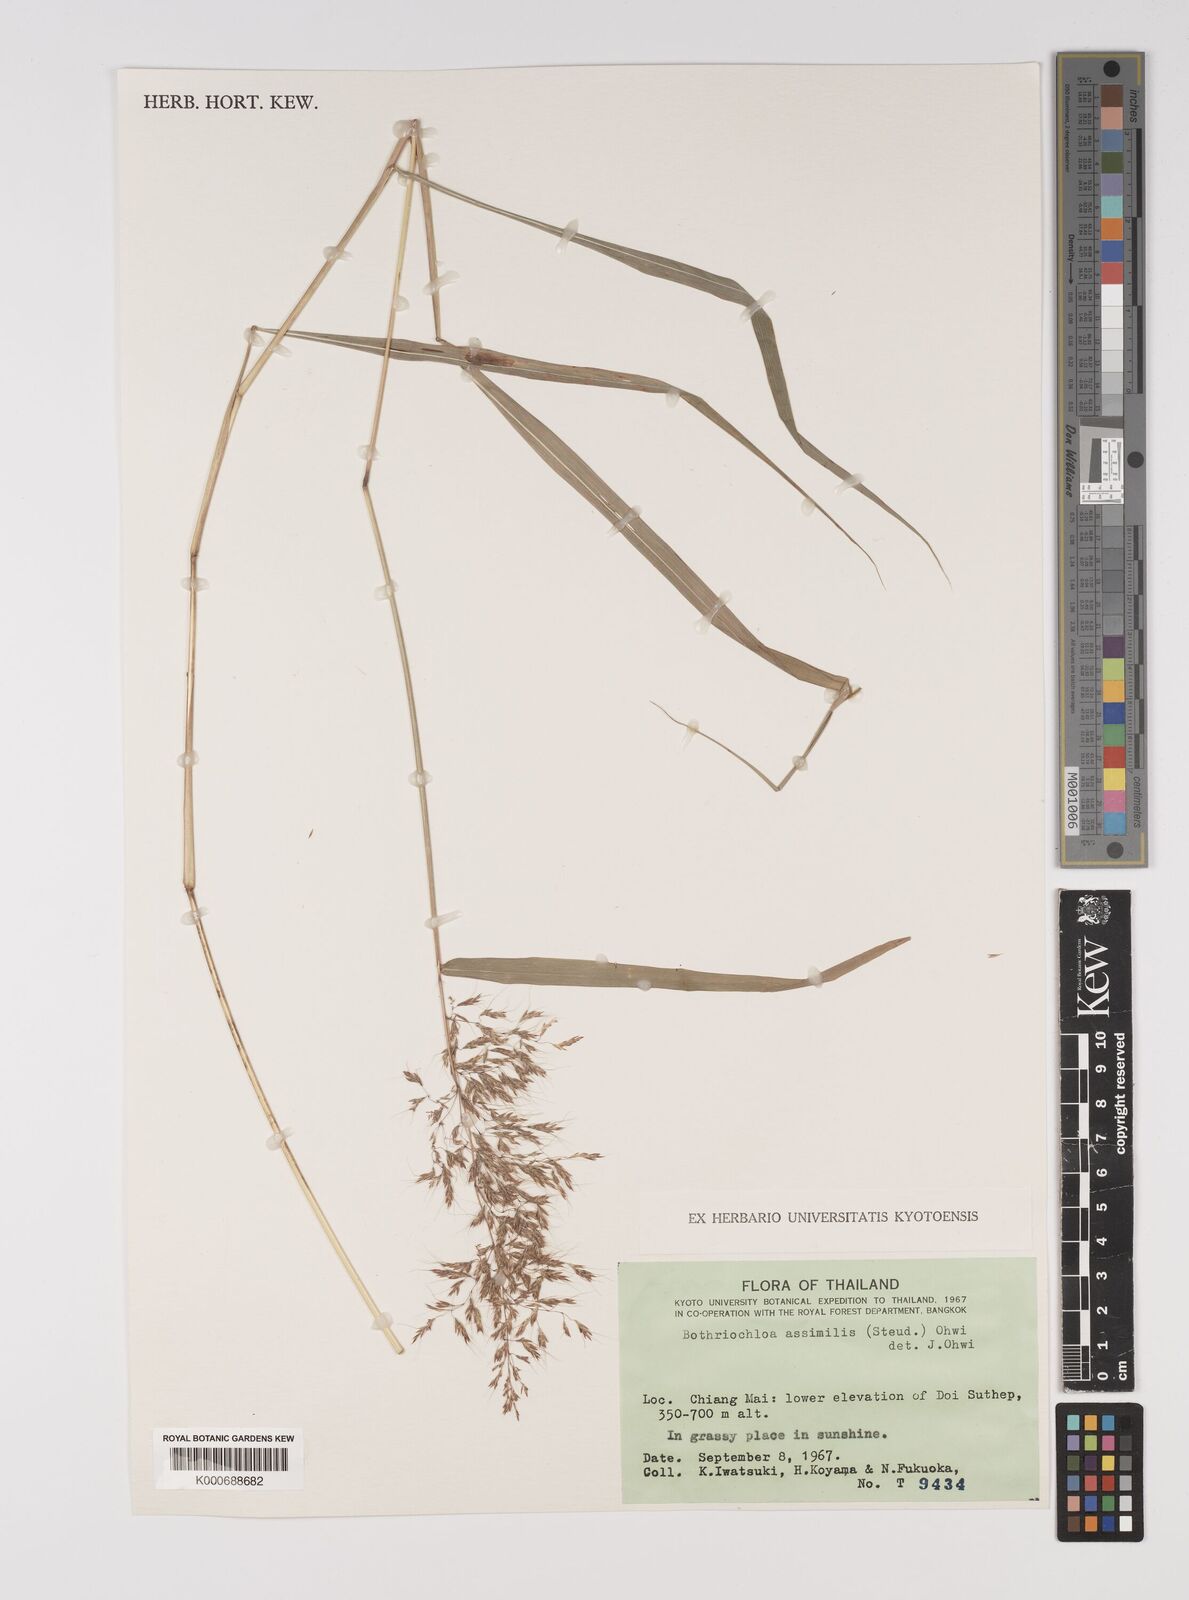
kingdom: Plantae
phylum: Tracheophyta
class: Liliopsida
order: Poales
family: Poaceae
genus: Capillipedium
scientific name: Capillipedium assimile
